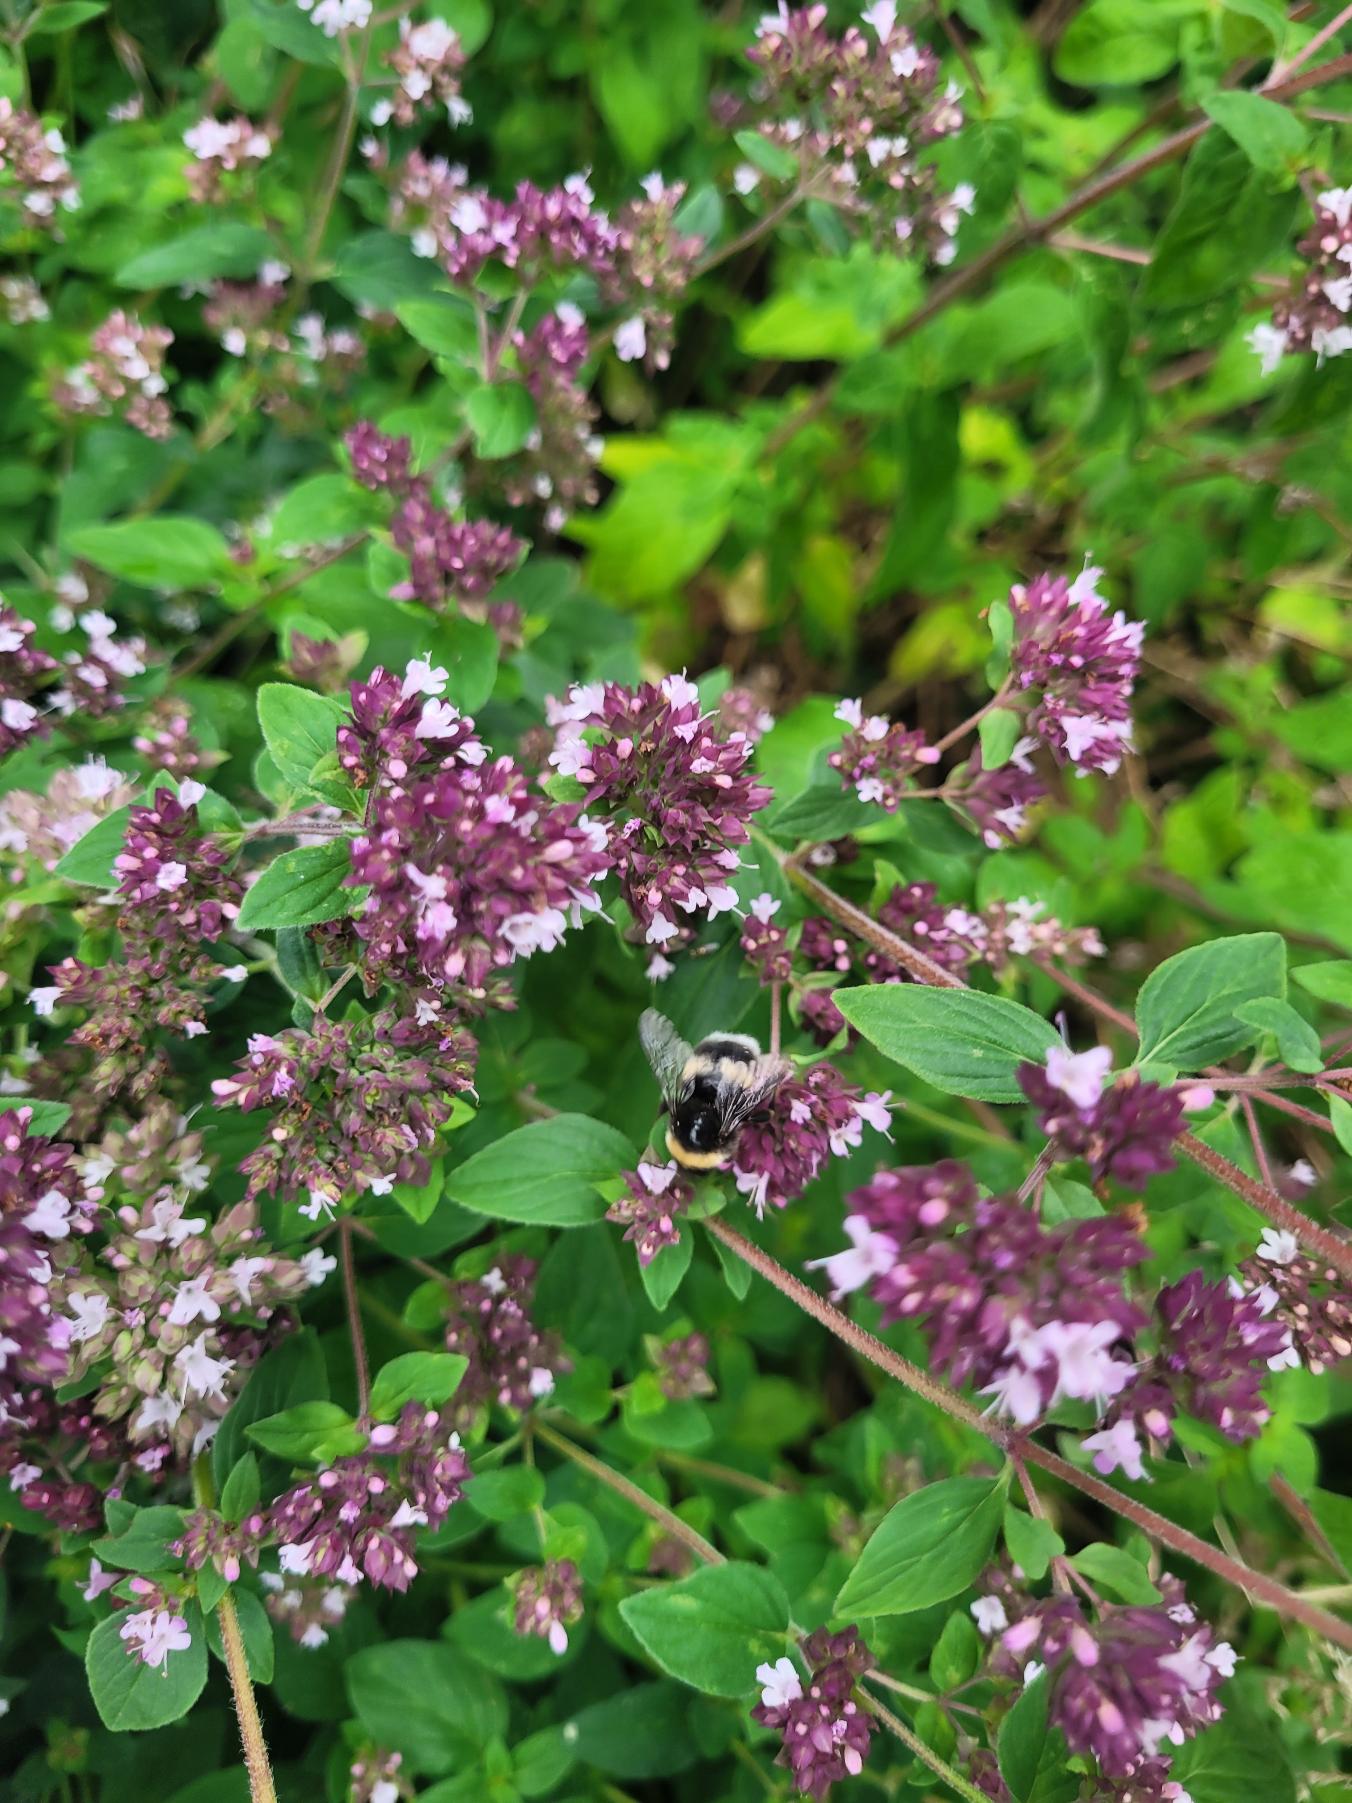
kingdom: Plantae
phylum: Tracheophyta
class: Magnoliopsida
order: Lamiales
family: Lamiaceae
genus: Origanum
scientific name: Origanum vulgare
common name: Merian
